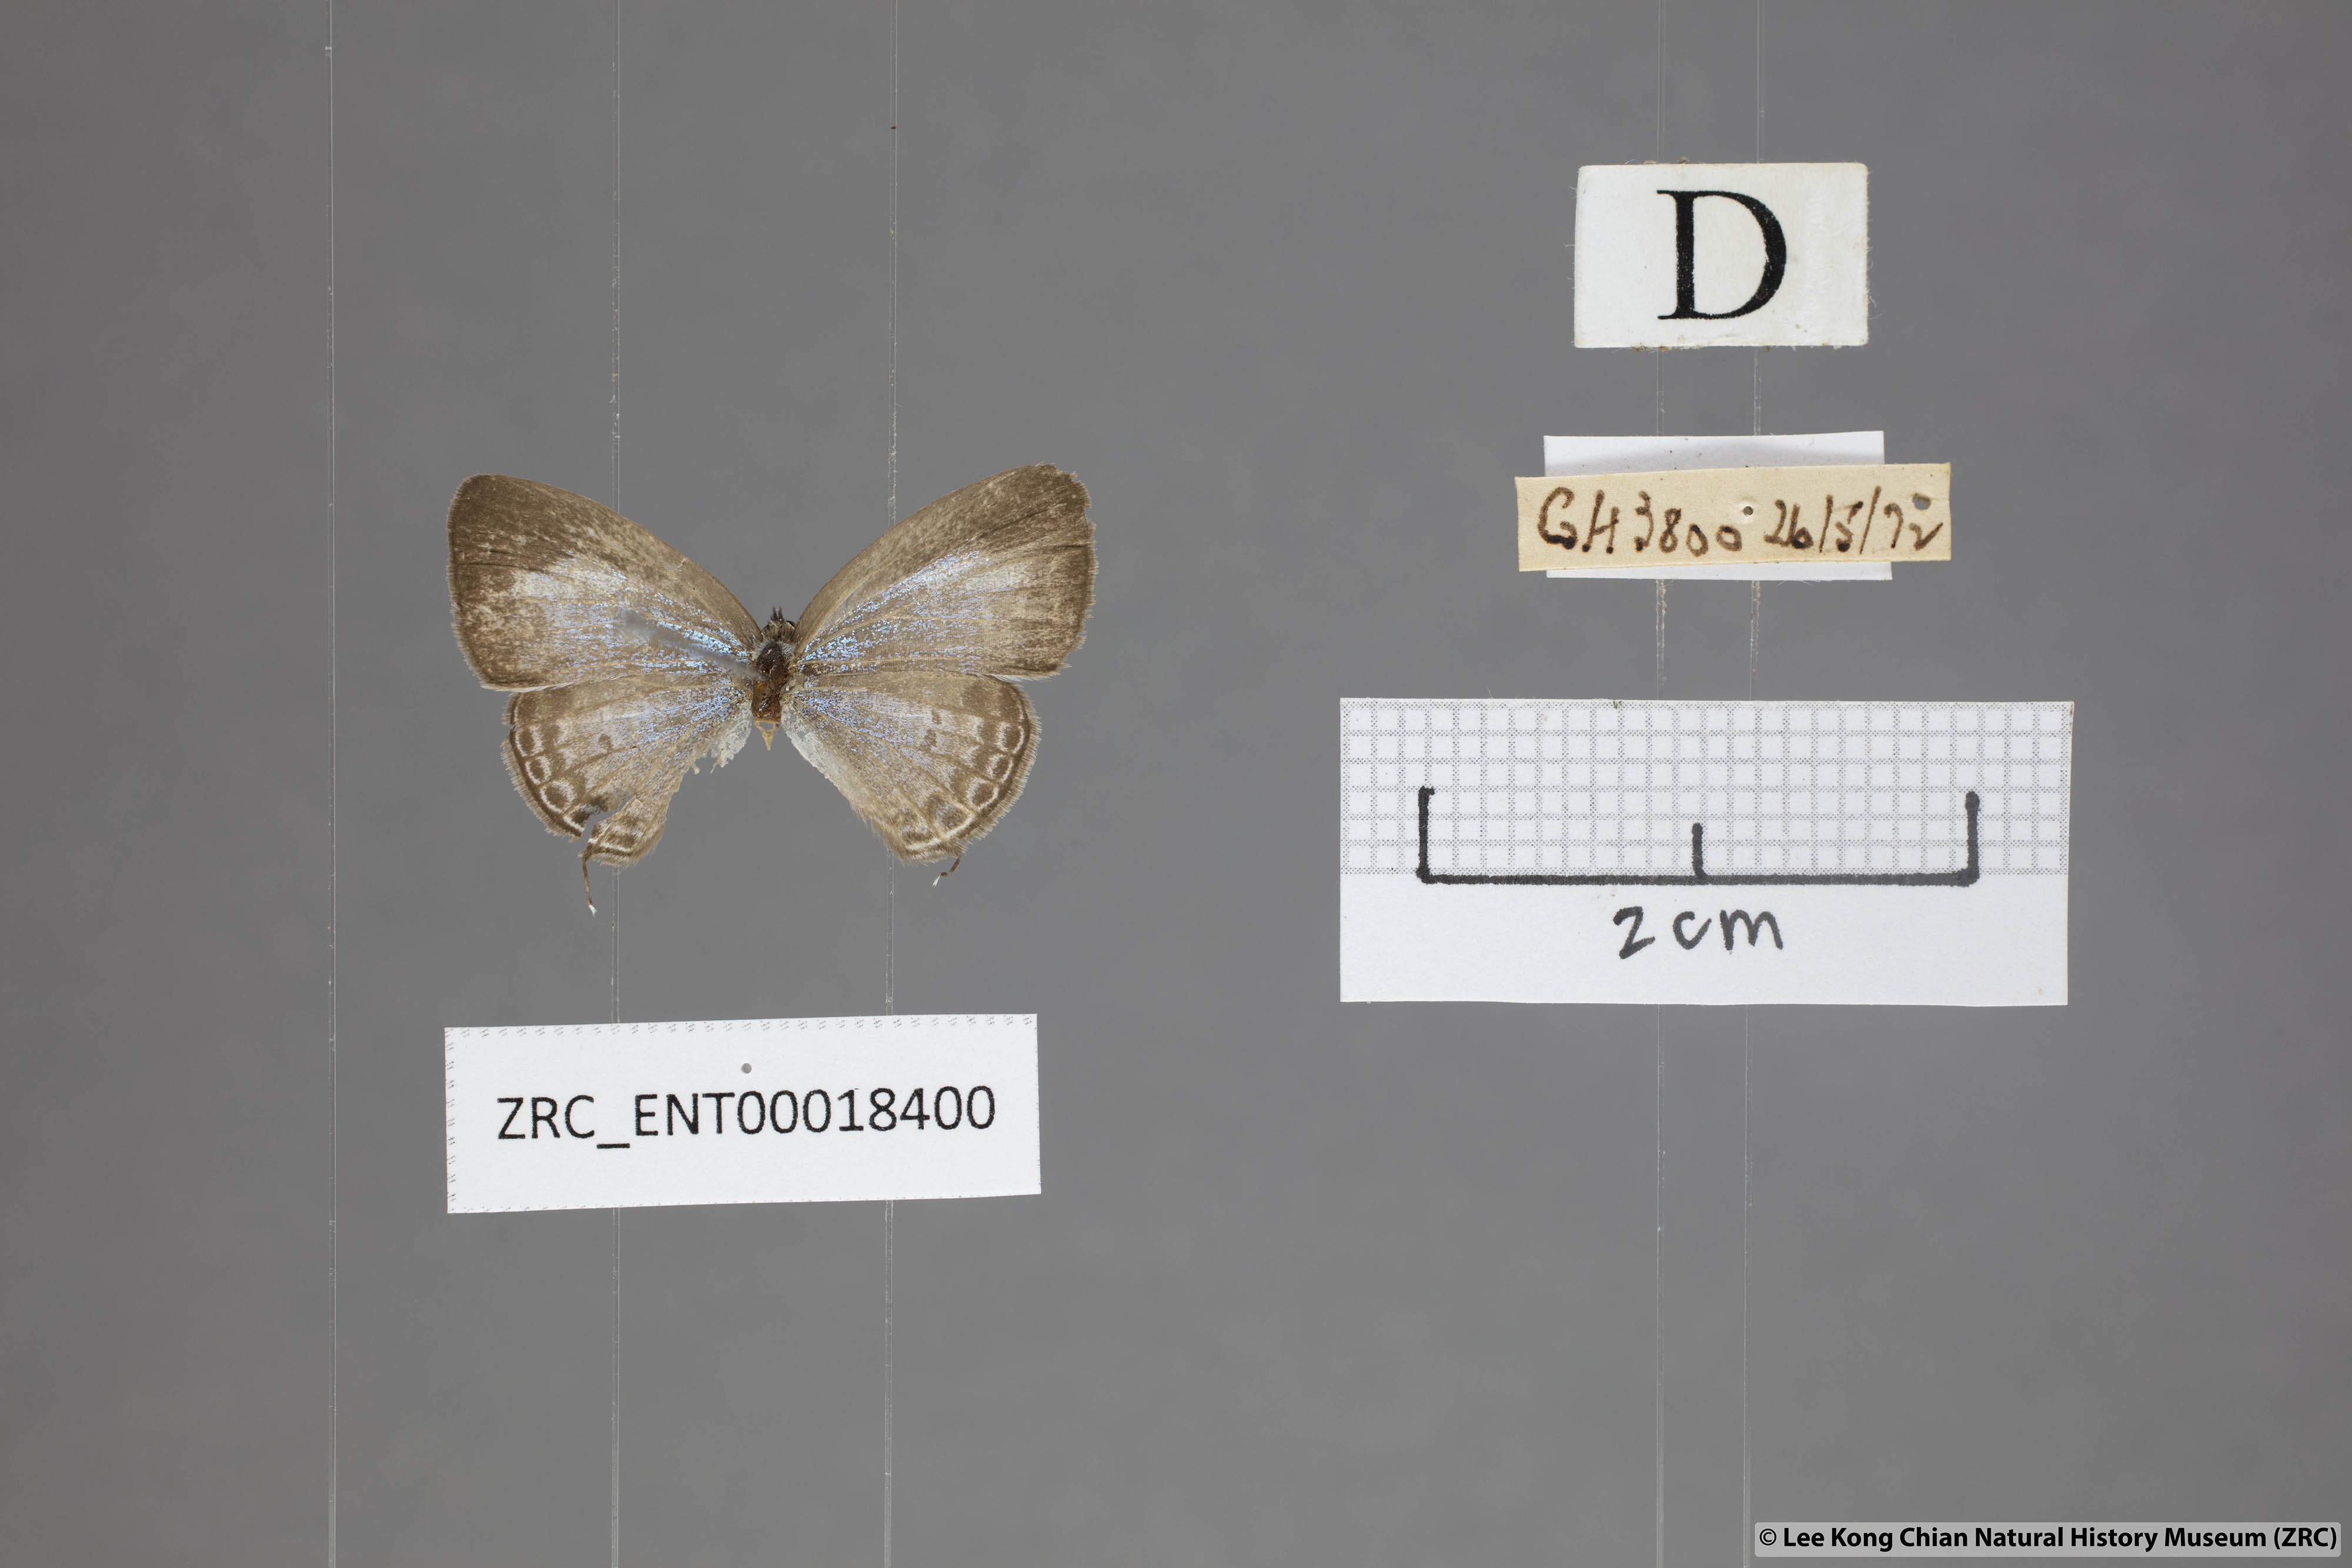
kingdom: Animalia
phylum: Arthropoda
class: Insecta
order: Lepidoptera
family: Lycaenidae
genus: Nacaduba
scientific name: Nacaduba kurava
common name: Transparent 6-line blue
